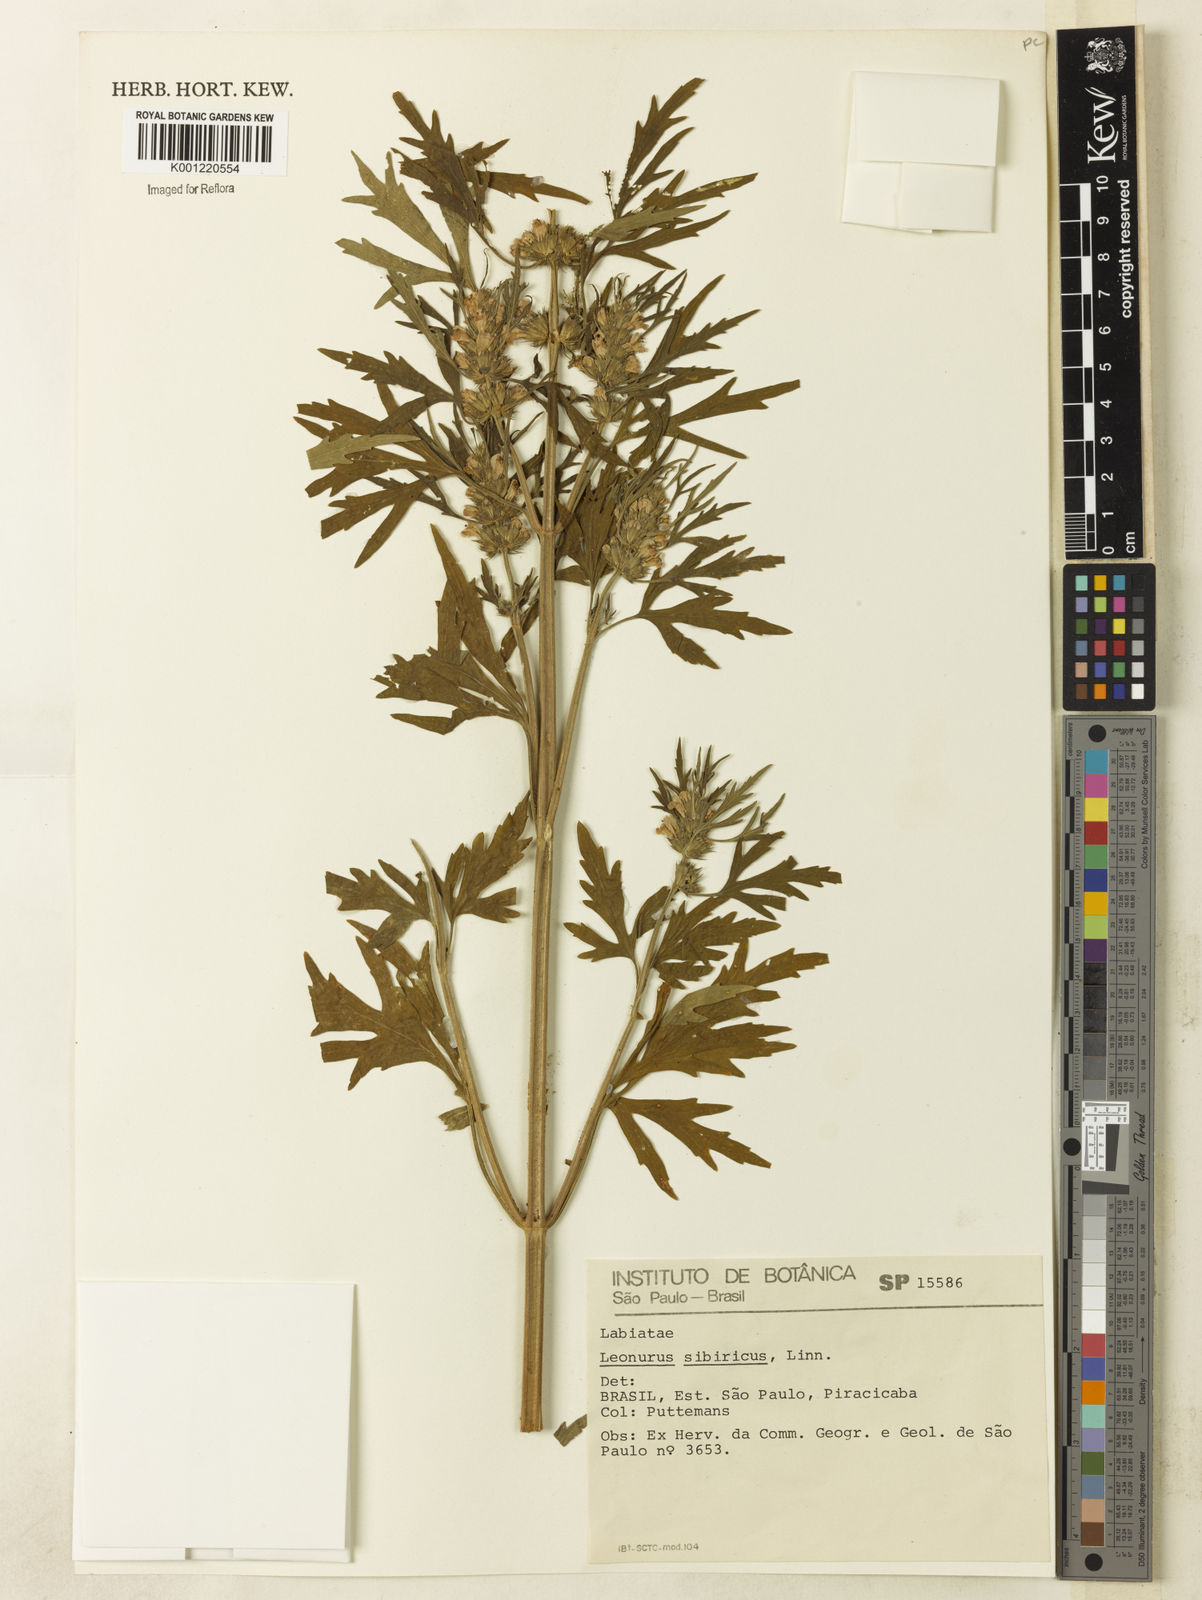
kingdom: Plantae
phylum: Tracheophyta
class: Magnoliopsida
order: Lamiales
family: Lamiaceae
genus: Leonurus
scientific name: Leonurus japonicus
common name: Honeyweed
